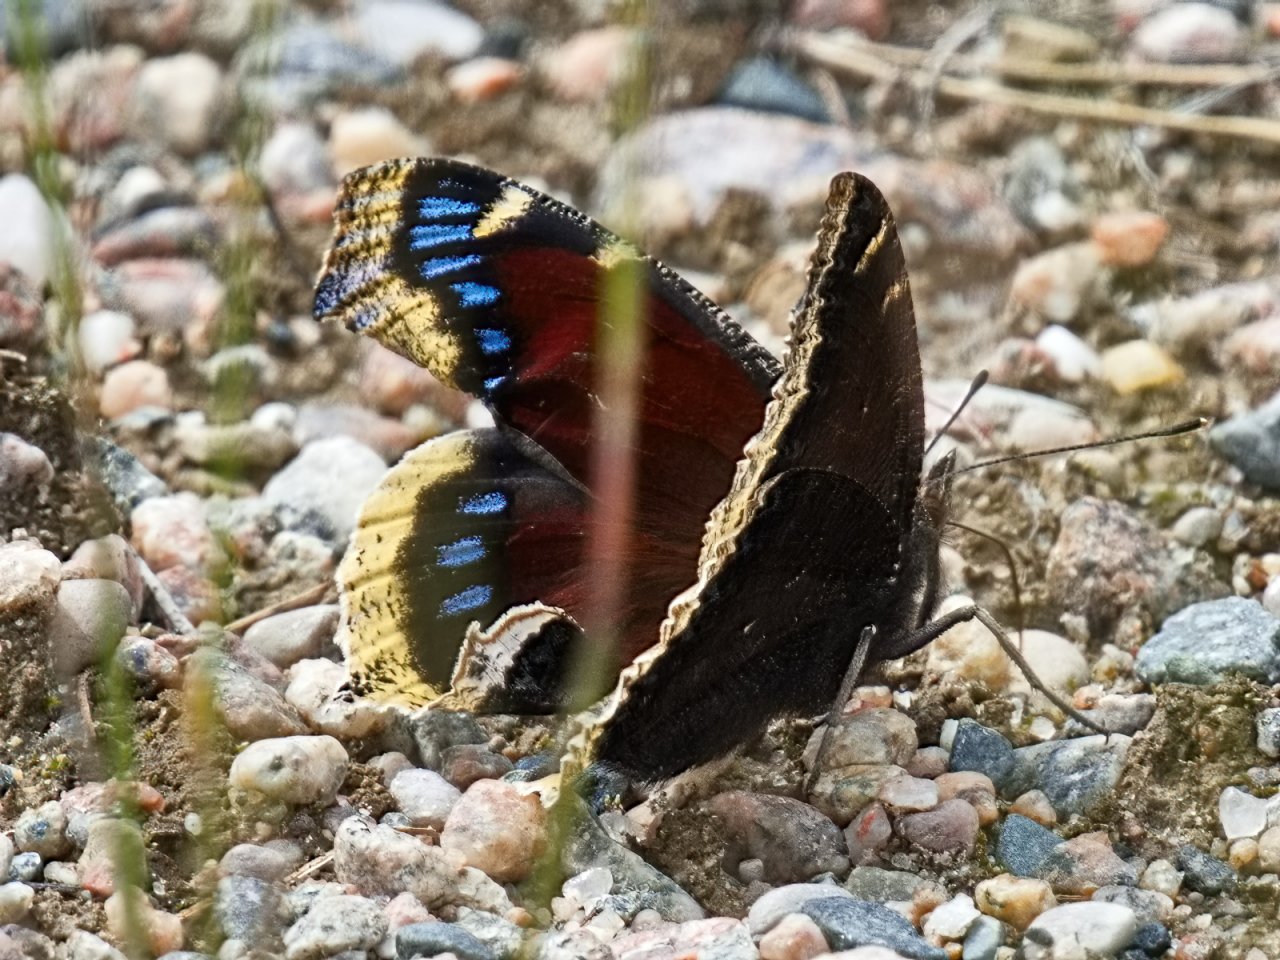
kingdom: Animalia
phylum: Arthropoda
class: Insecta
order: Lepidoptera
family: Nymphalidae
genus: Nymphalis
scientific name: Nymphalis antiopa
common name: Mourning Cloak
